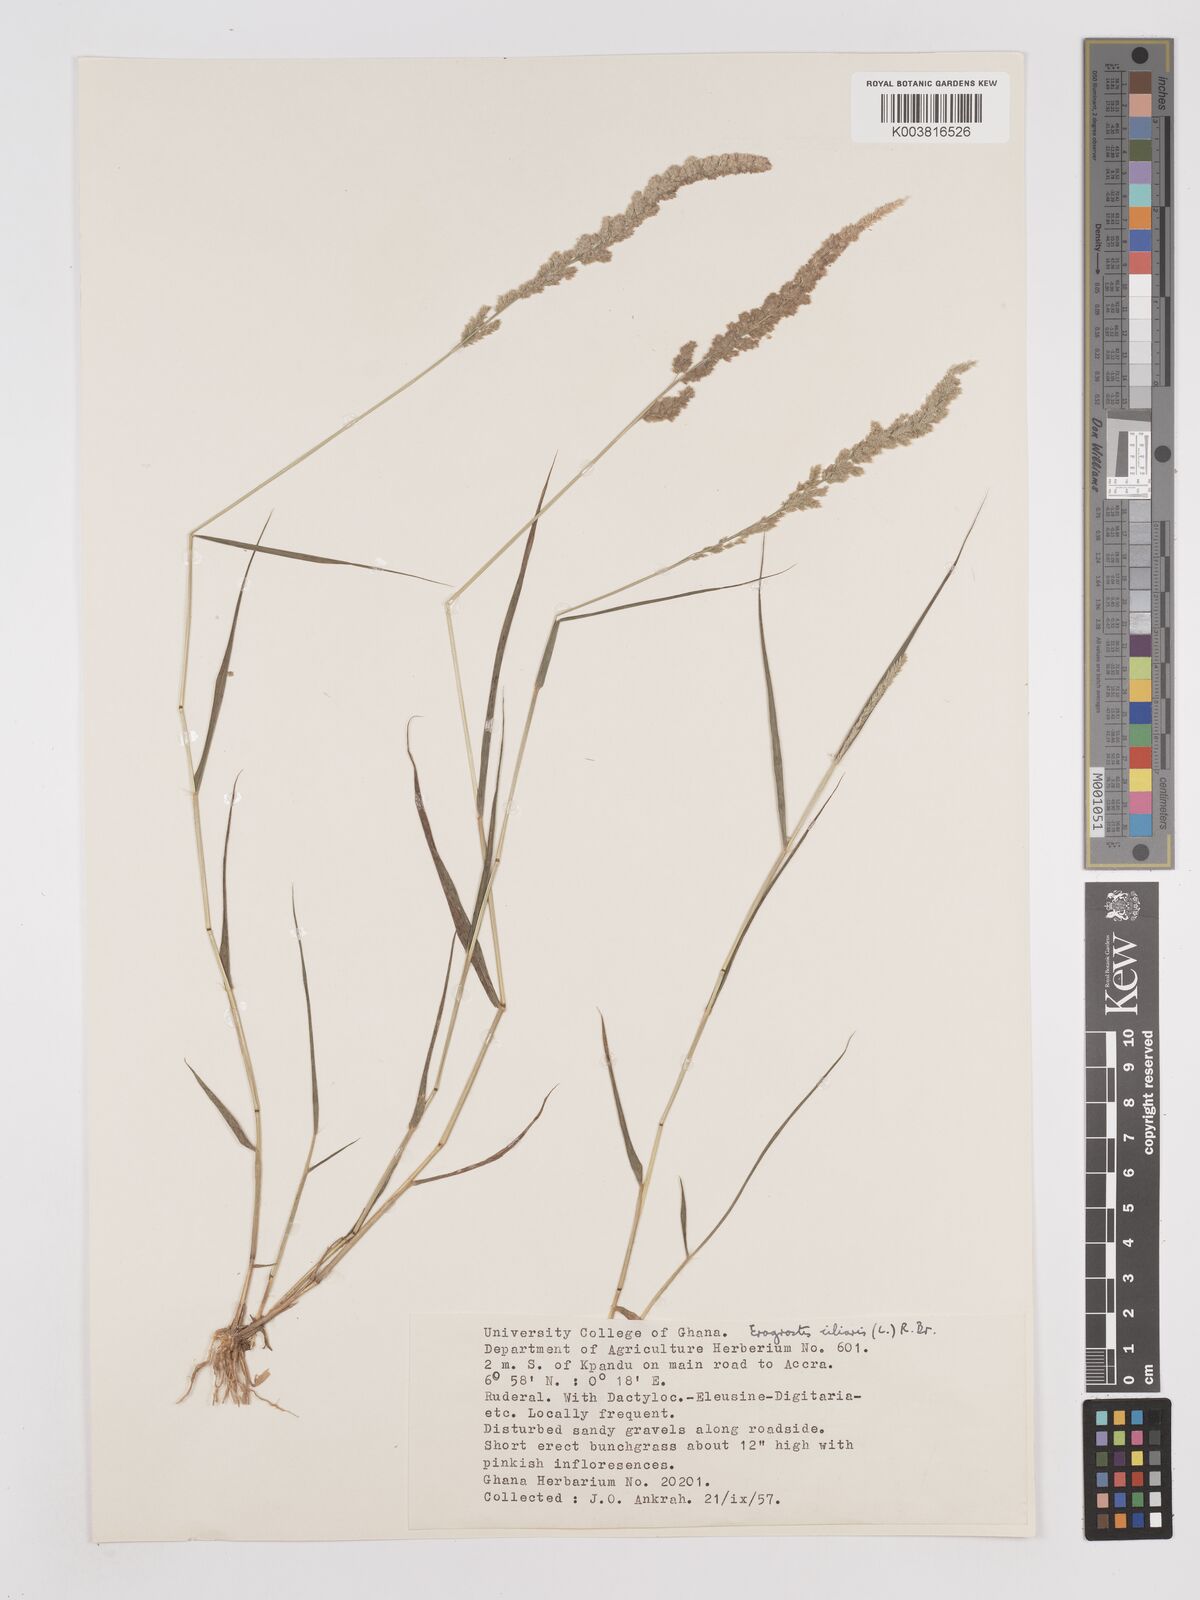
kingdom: Plantae
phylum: Tracheophyta
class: Liliopsida
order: Poales
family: Poaceae
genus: Eragrostis
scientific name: Eragrostis ciliaris
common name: Gophertail lovegrass
